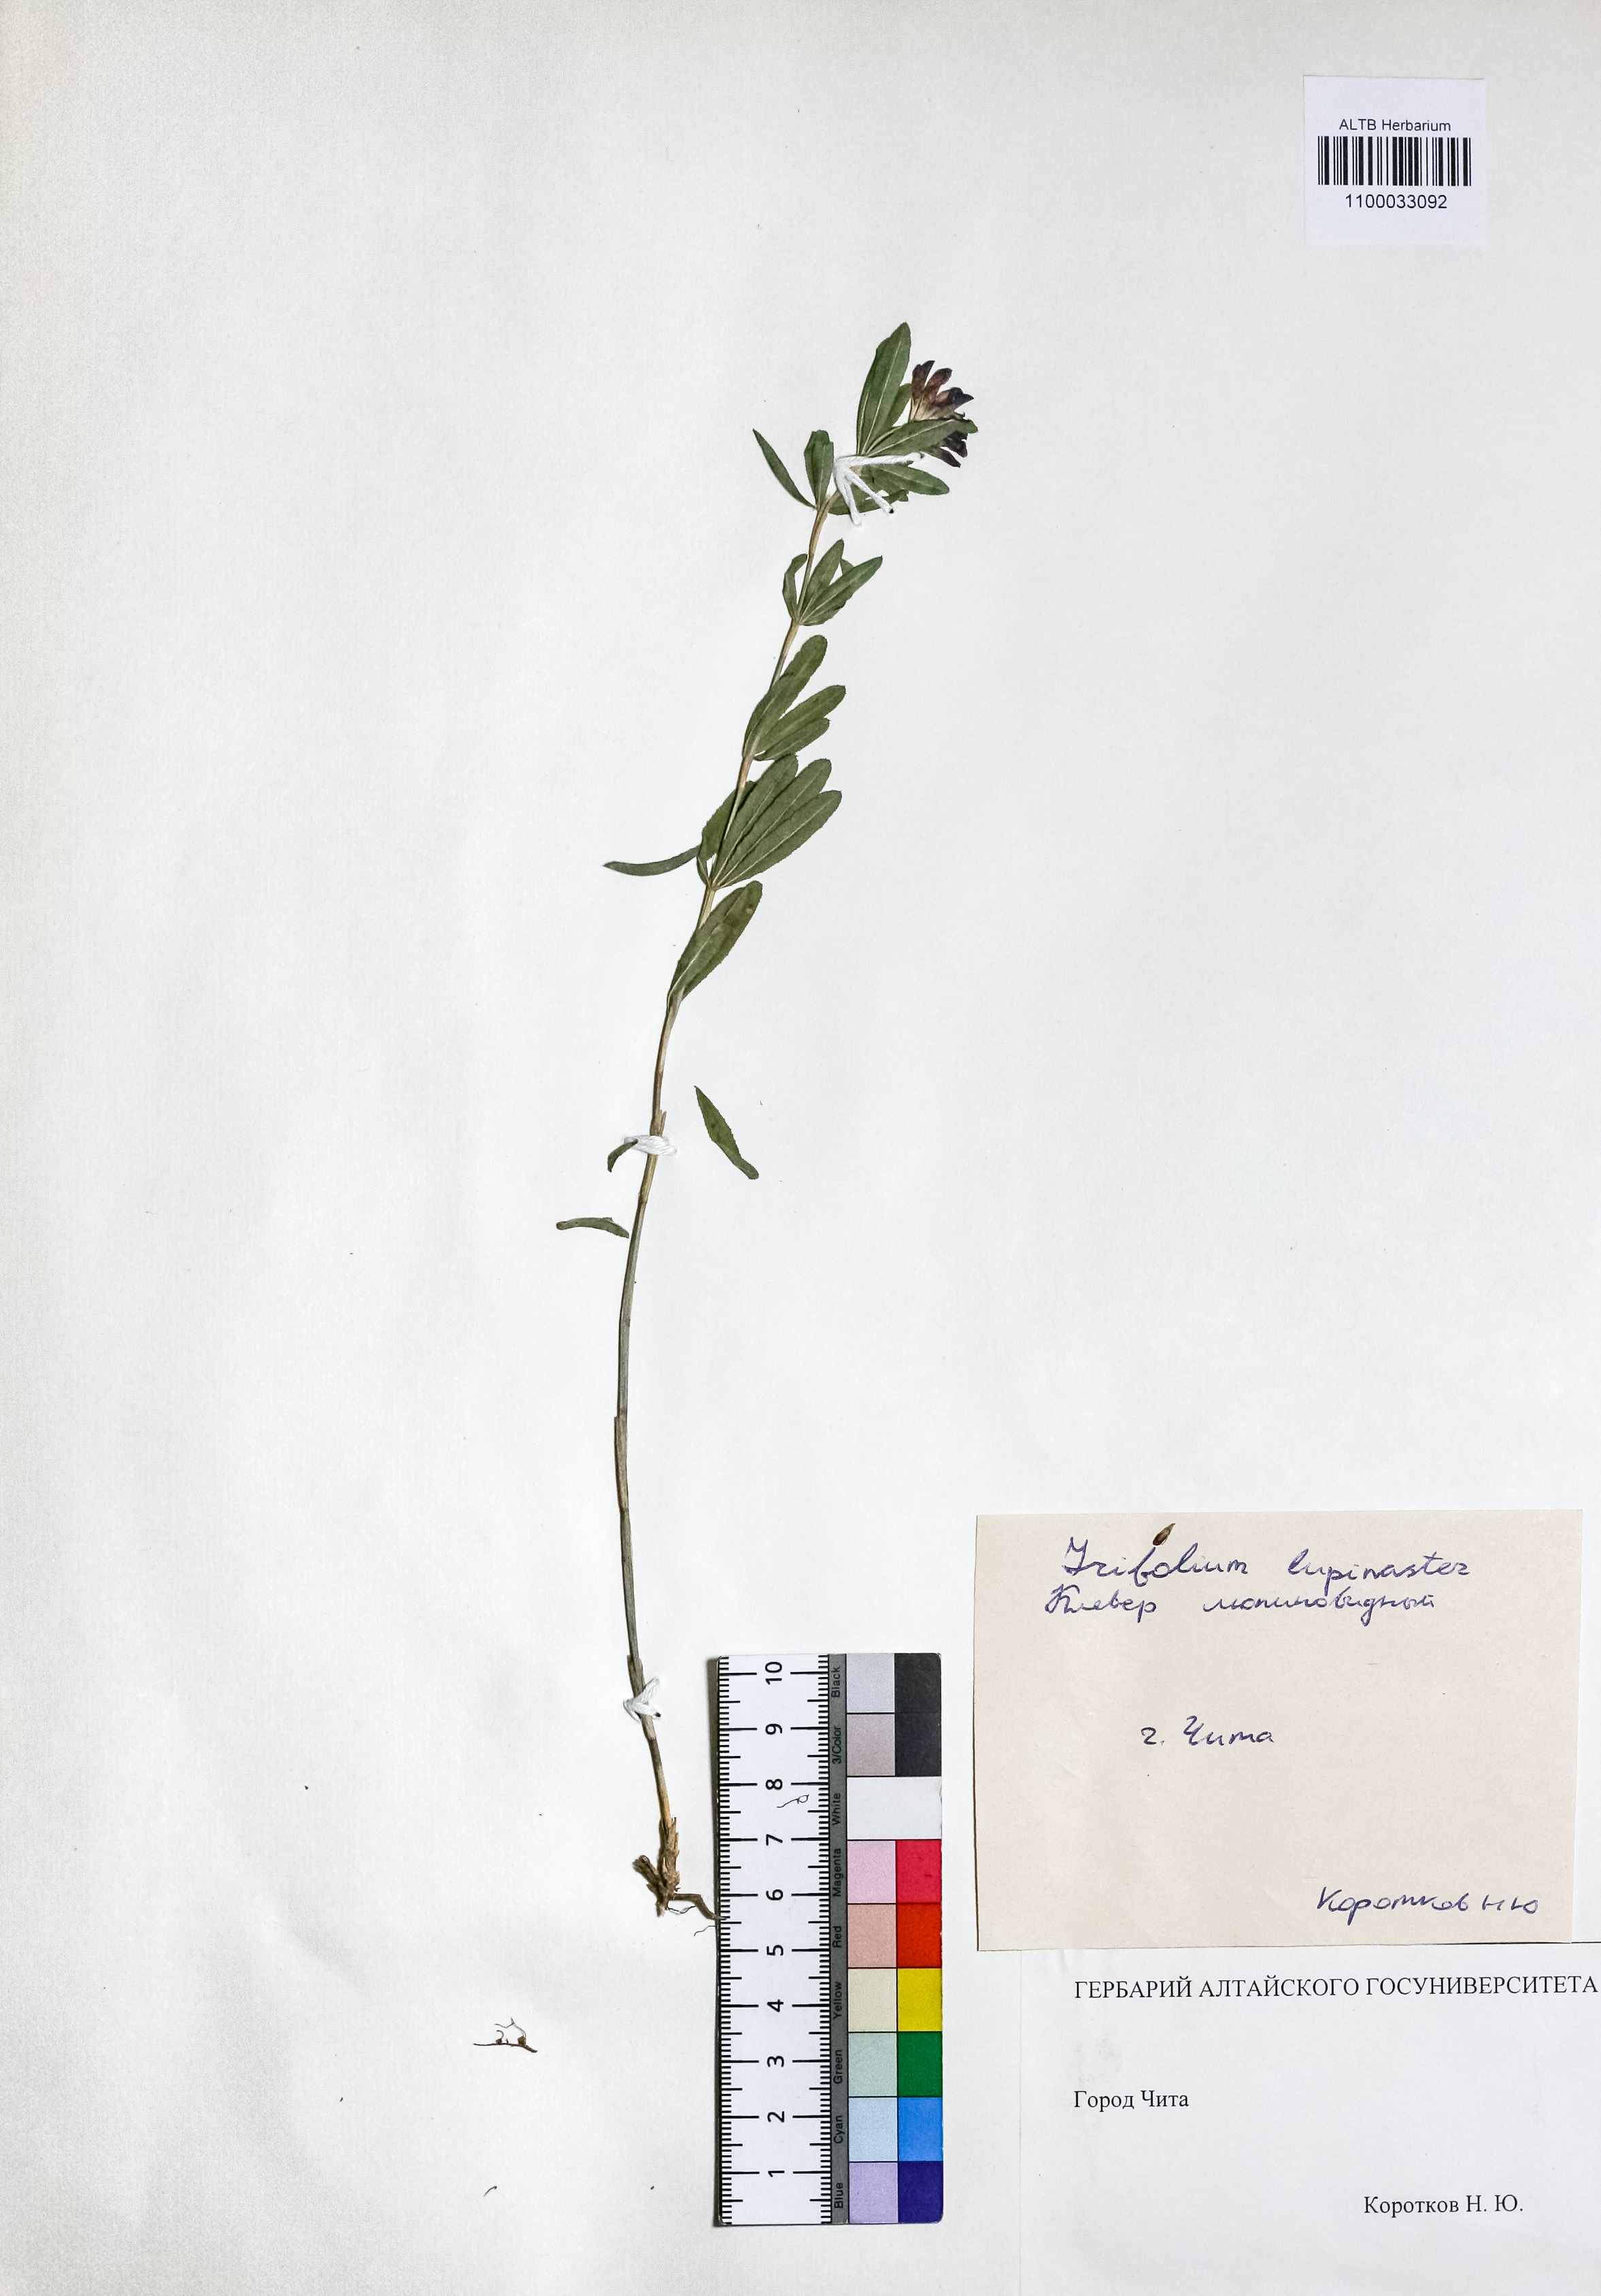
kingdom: Plantae
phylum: Tracheophyta
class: Magnoliopsida
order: Fabales
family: Fabaceae
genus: Trifolium
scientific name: Trifolium lupinaster
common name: Lupine clover
